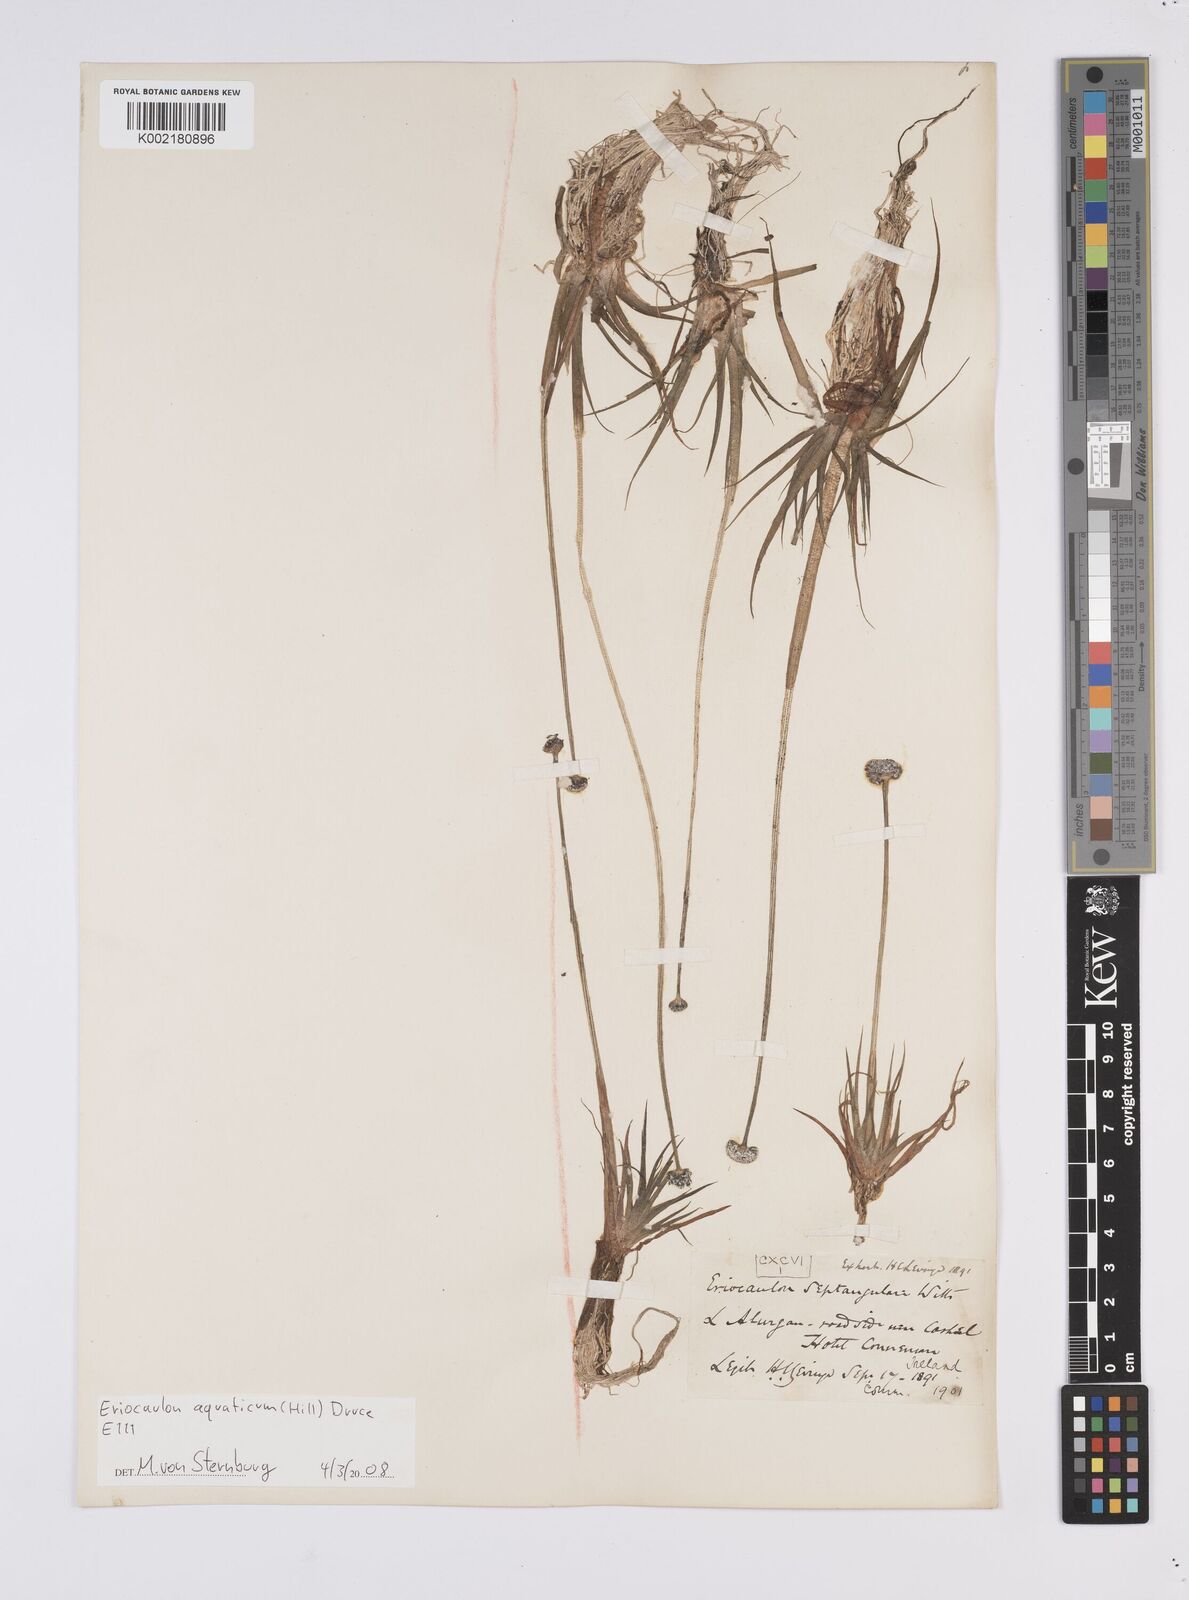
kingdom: Plantae
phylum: Tracheophyta
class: Liliopsida
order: Poales
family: Eriocaulaceae
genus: Eriocaulon
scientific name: Eriocaulon aquaticum
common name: Pipewort
